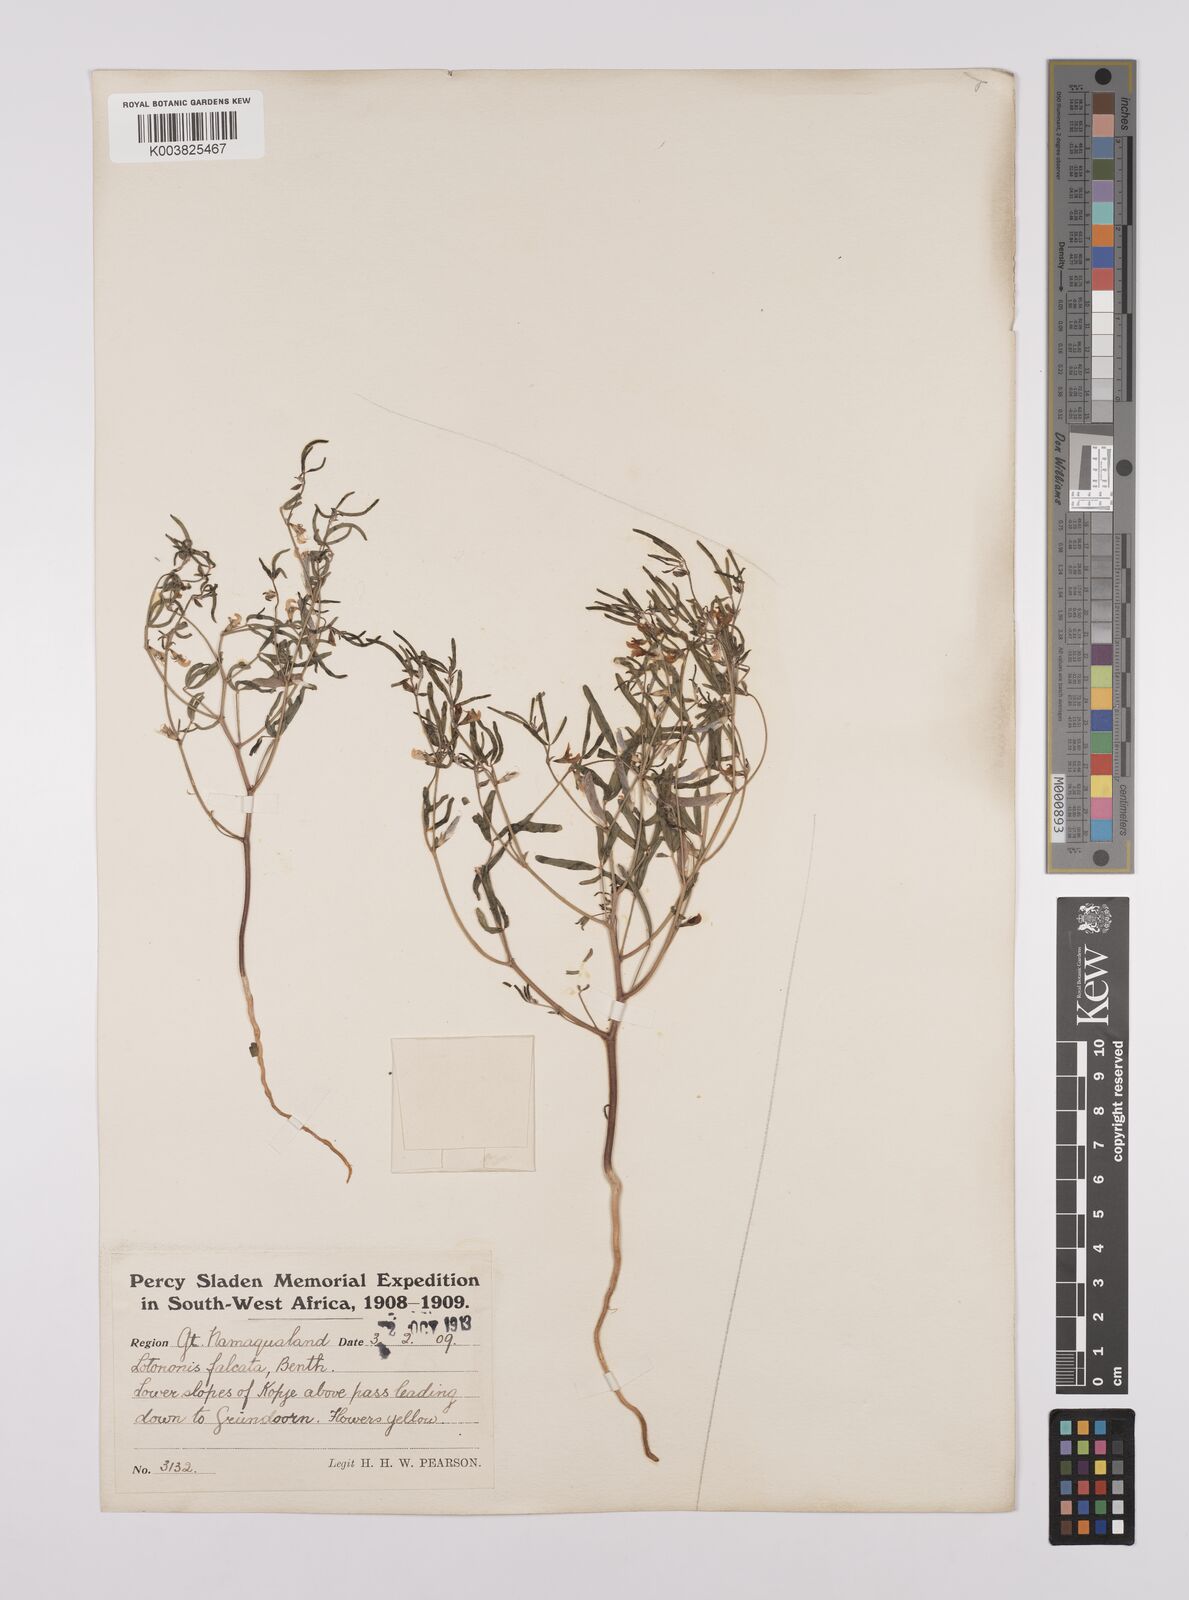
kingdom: Plantae
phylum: Tracheophyta
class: Magnoliopsida
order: Fabales
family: Fabaceae
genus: Lotononis
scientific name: Lotononis falcata
